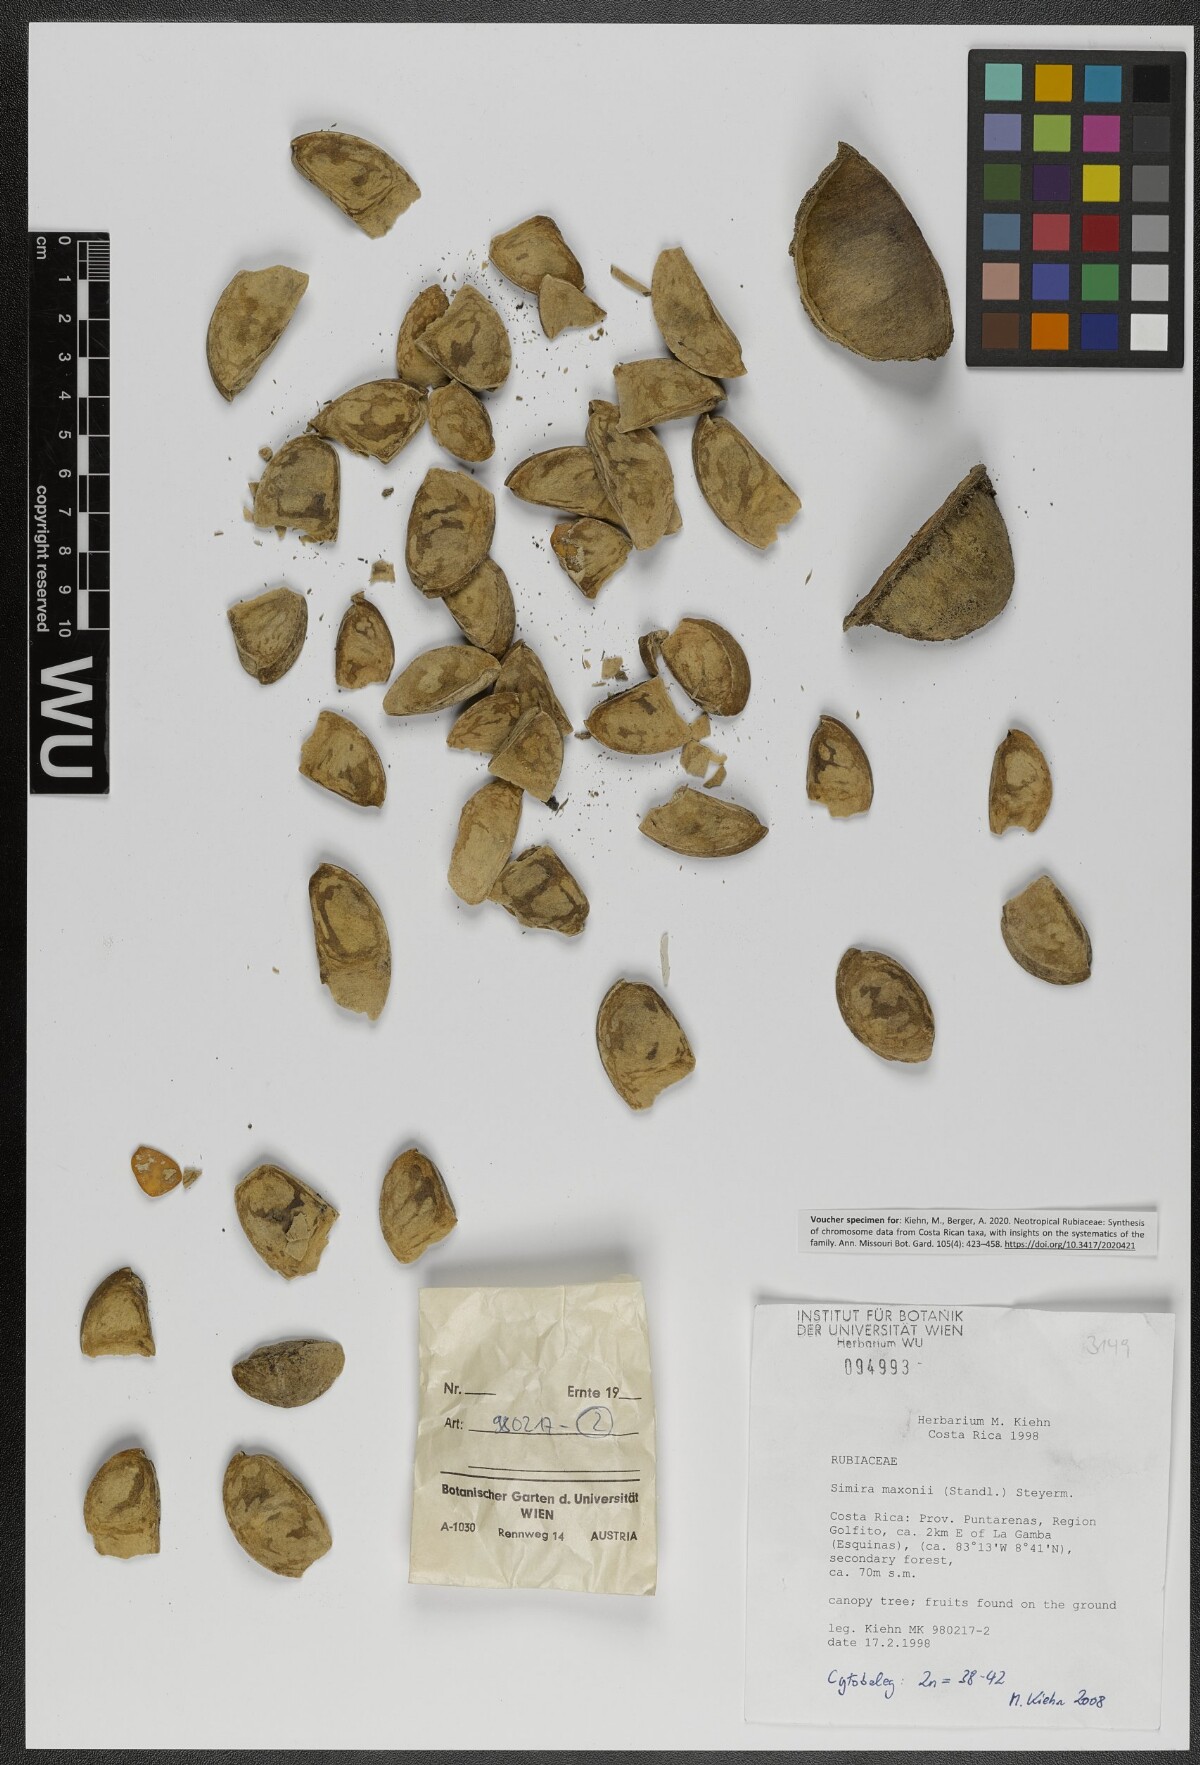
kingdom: Plantae
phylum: Tracheophyta
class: Magnoliopsida
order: Gentianales
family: Rubiaceae
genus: Simira
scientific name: Simira maxonii
